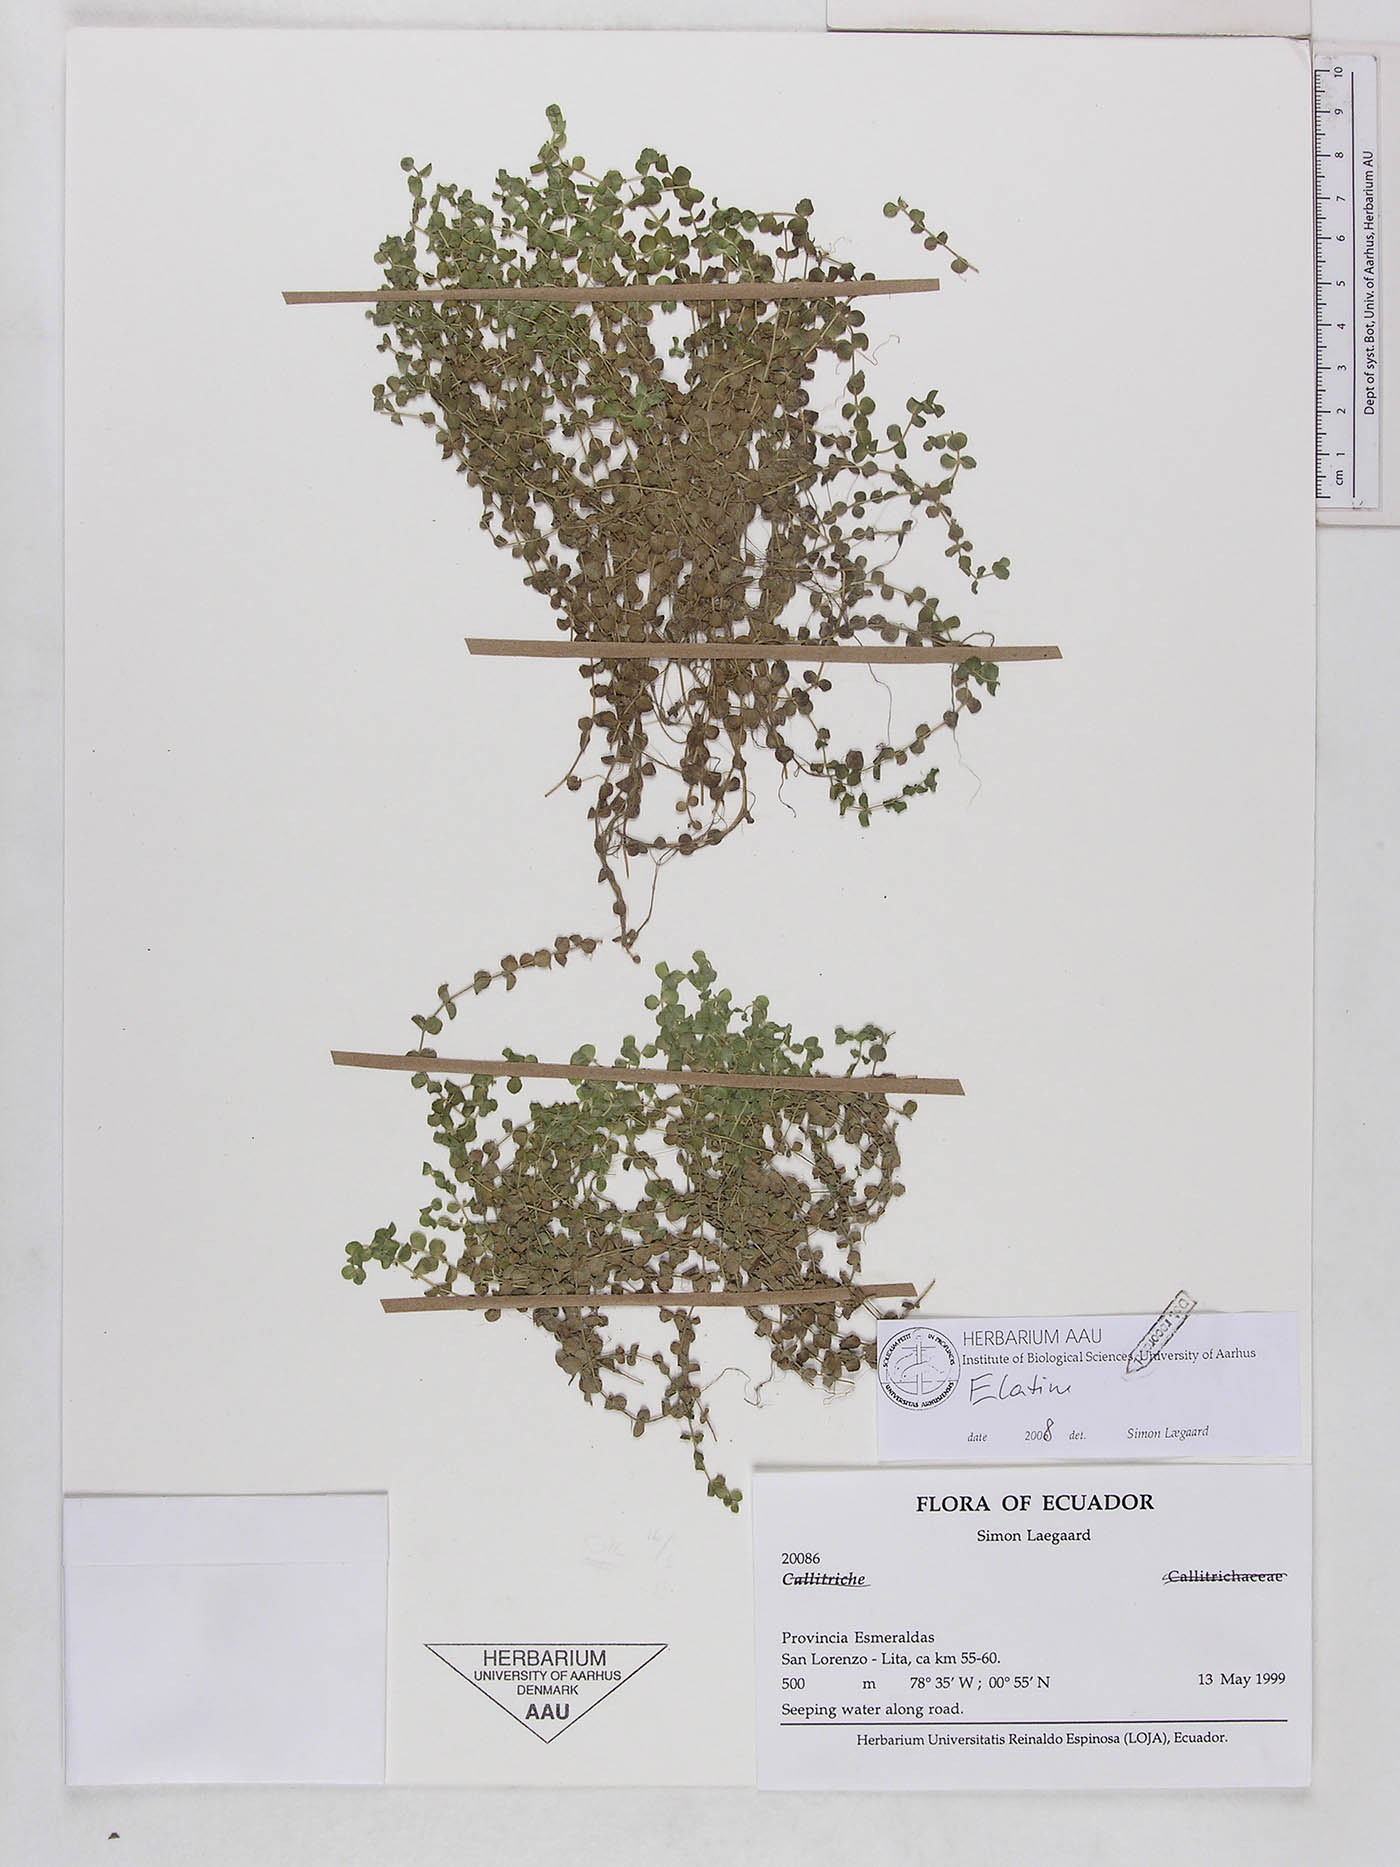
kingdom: Plantae
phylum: Tracheophyta
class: Magnoliopsida
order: Malpighiales
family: Elatinaceae
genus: Elatine
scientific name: Elatine rotundifolia
